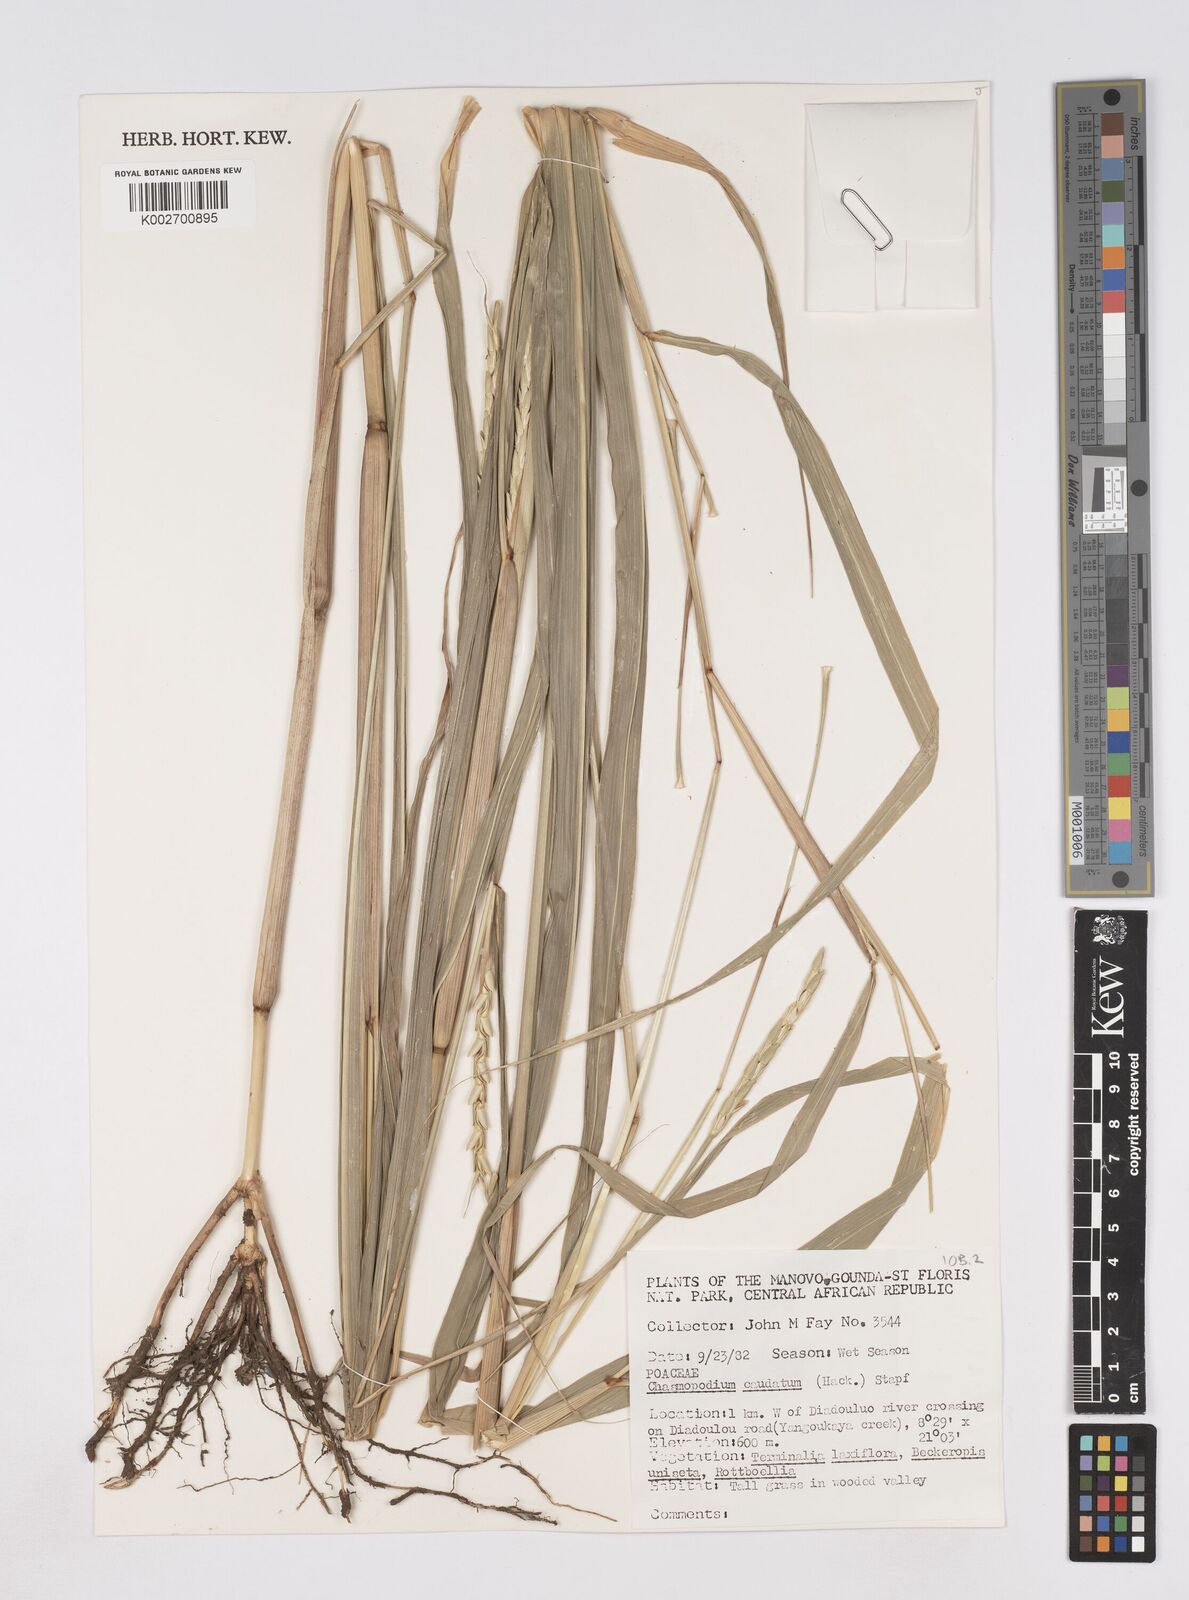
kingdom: Plantae
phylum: Tracheophyta
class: Liliopsida
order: Poales
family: Poaceae
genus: Chasmopodium
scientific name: Chasmopodium caudatum
